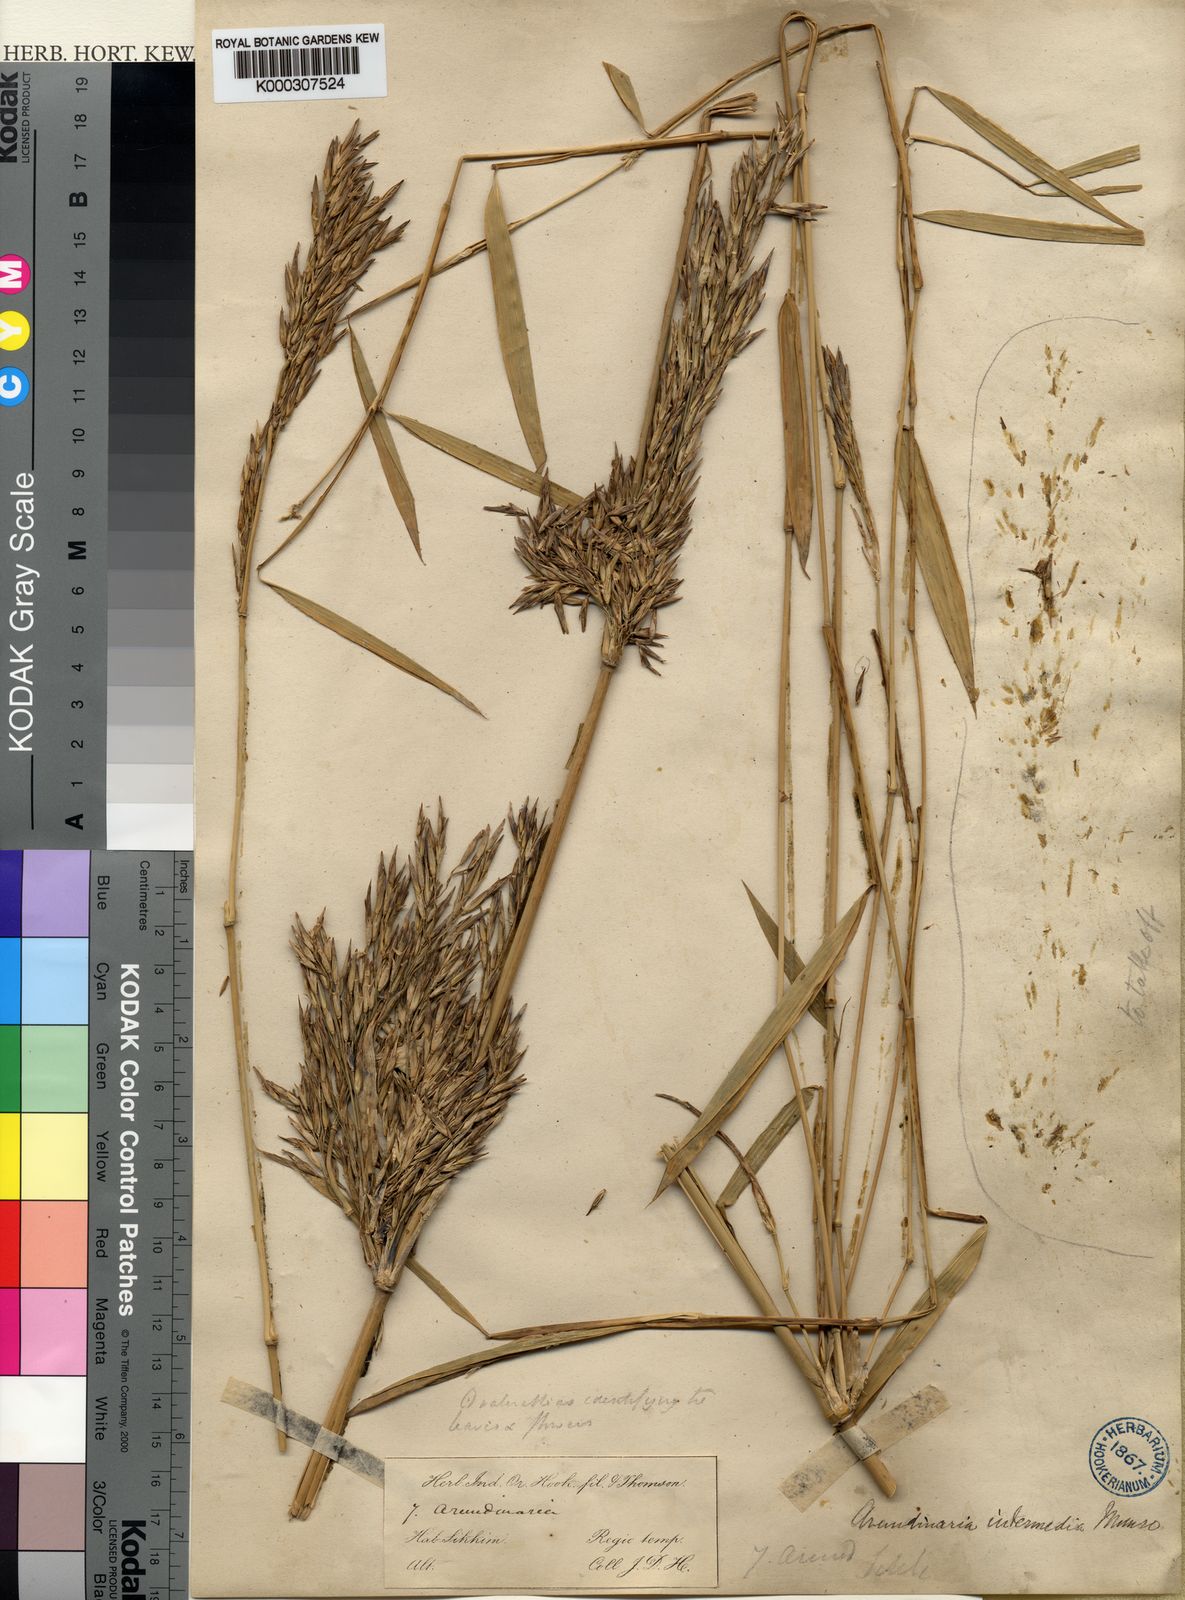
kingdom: Plantae
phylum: Tracheophyta
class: Liliopsida
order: Poales
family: Poaceae
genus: Drepanostachyum
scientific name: Drepanostachyum intermedium
